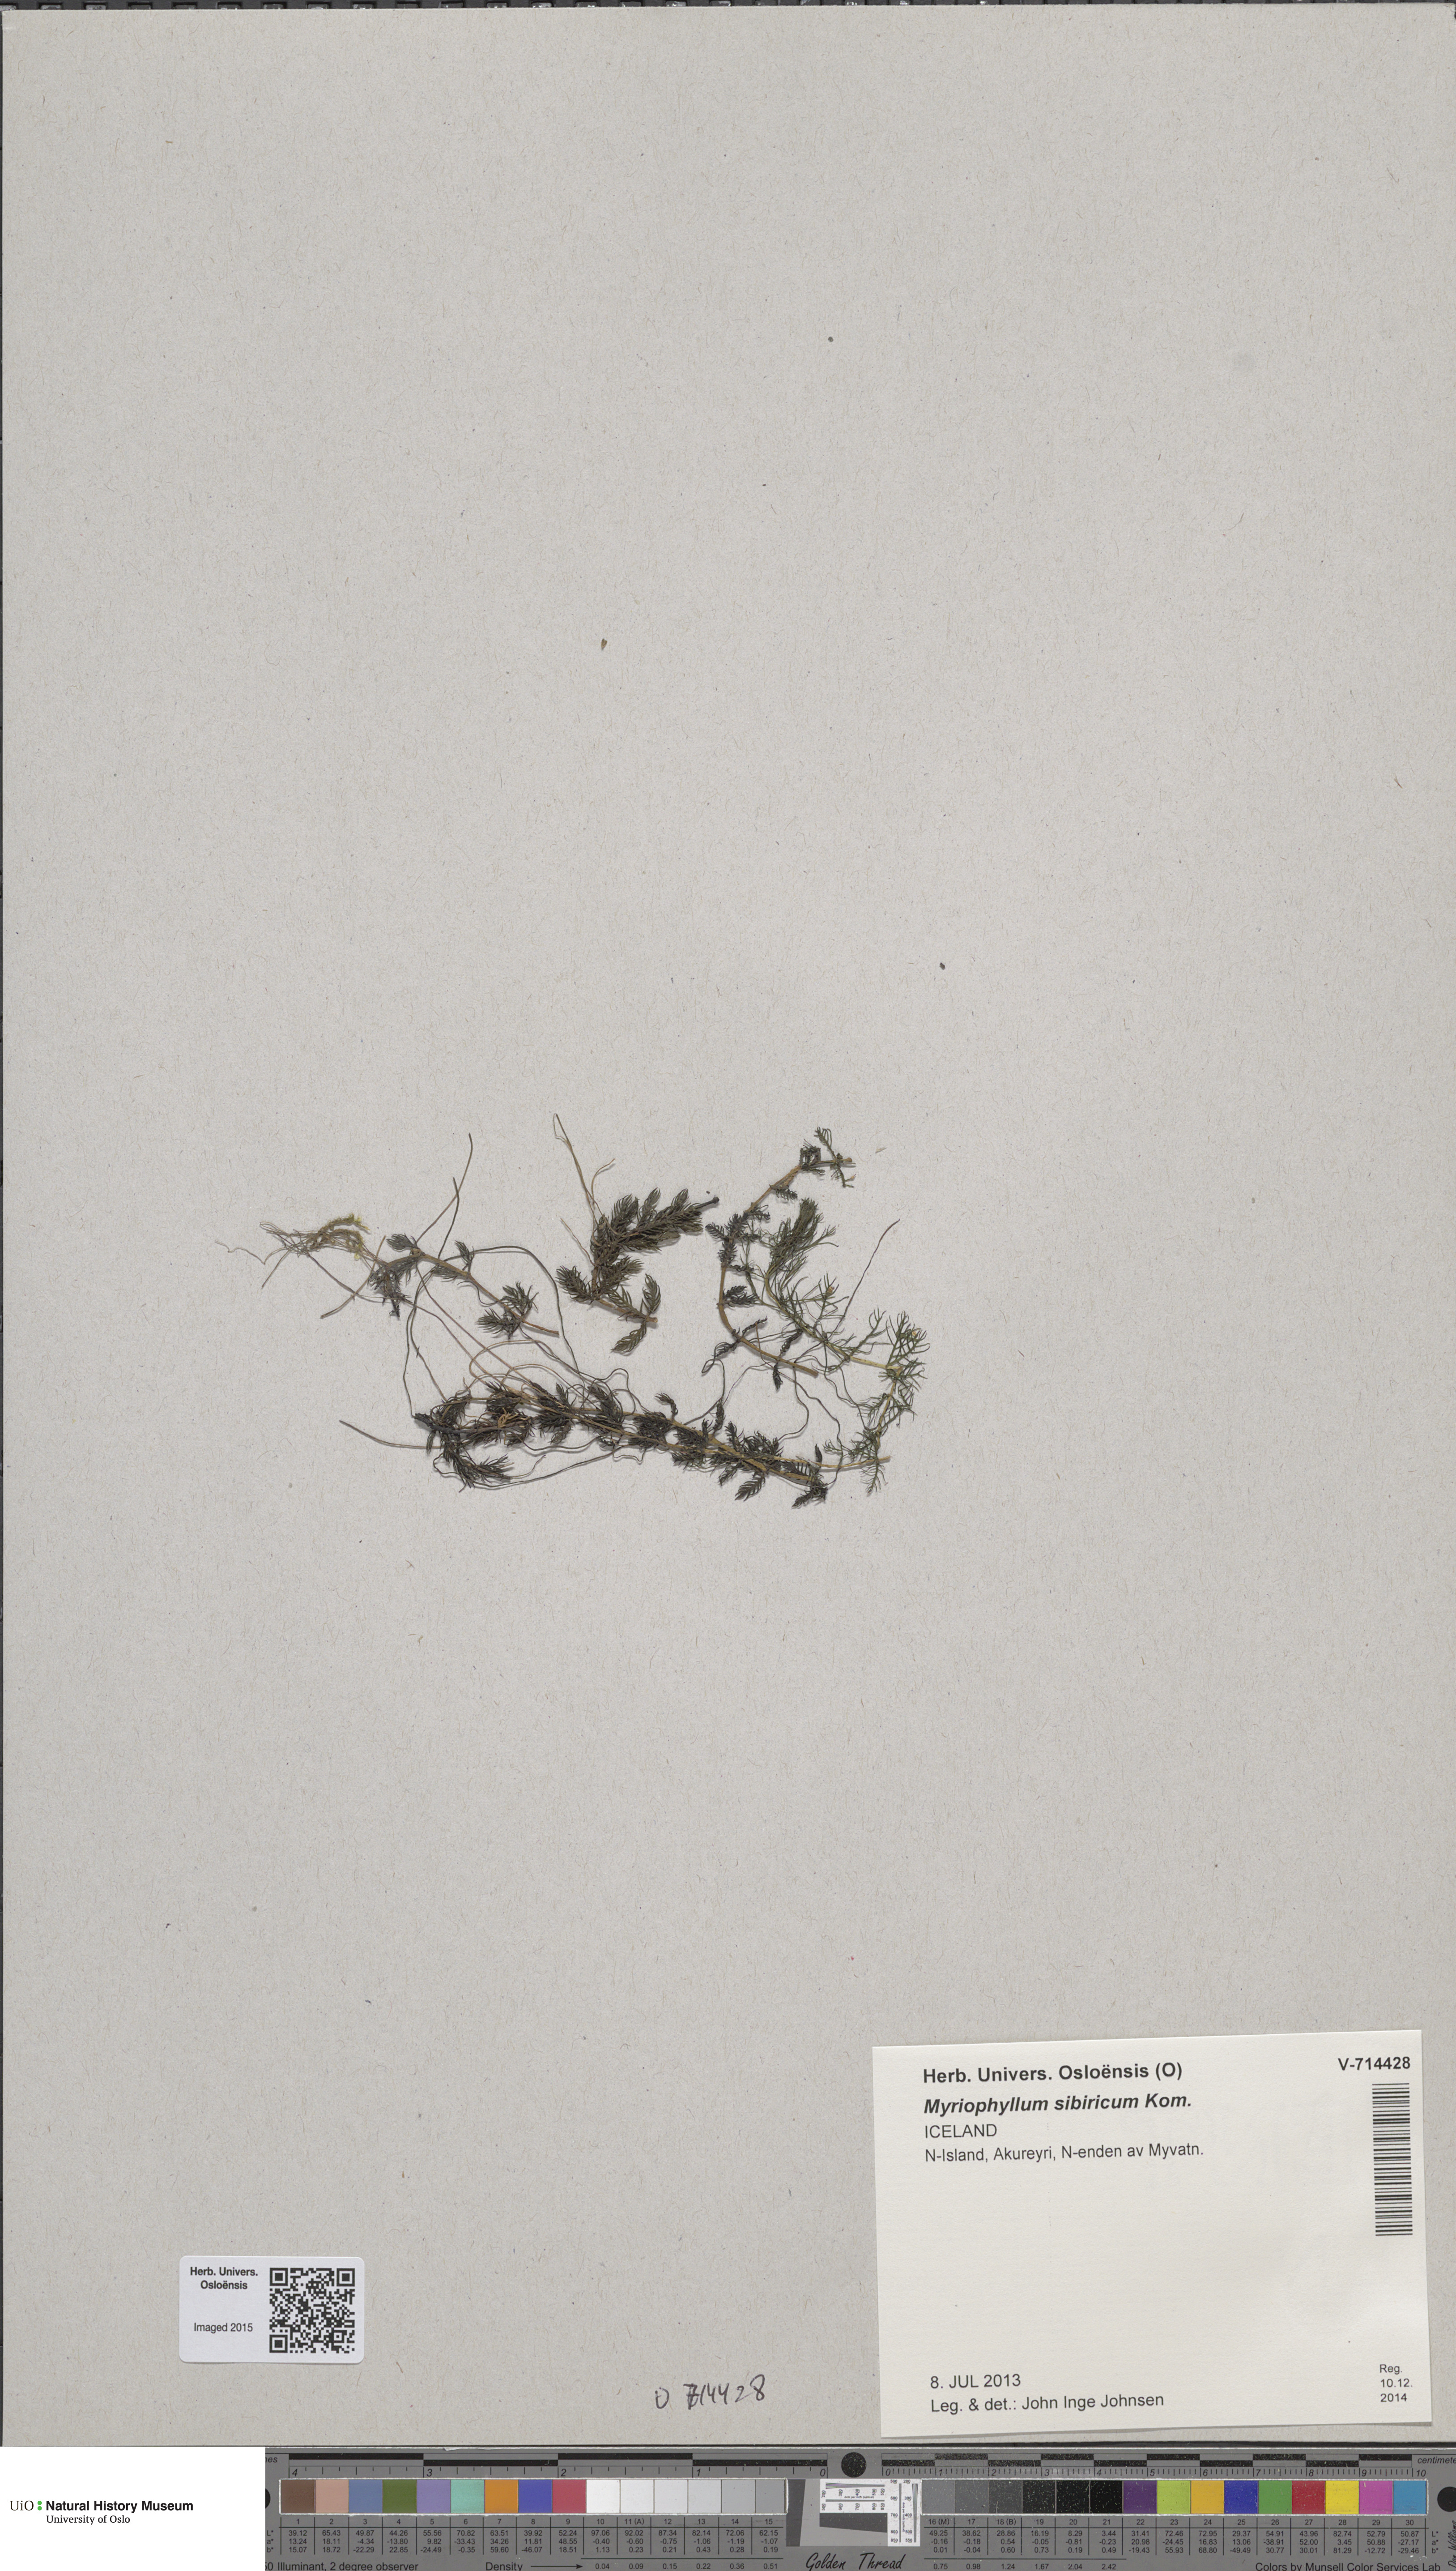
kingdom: Plantae
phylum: Tracheophyta
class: Magnoliopsida
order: Saxifragales
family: Haloragaceae
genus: Myriophyllum
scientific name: Myriophyllum sibiricum
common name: Siberian water-milfoil
